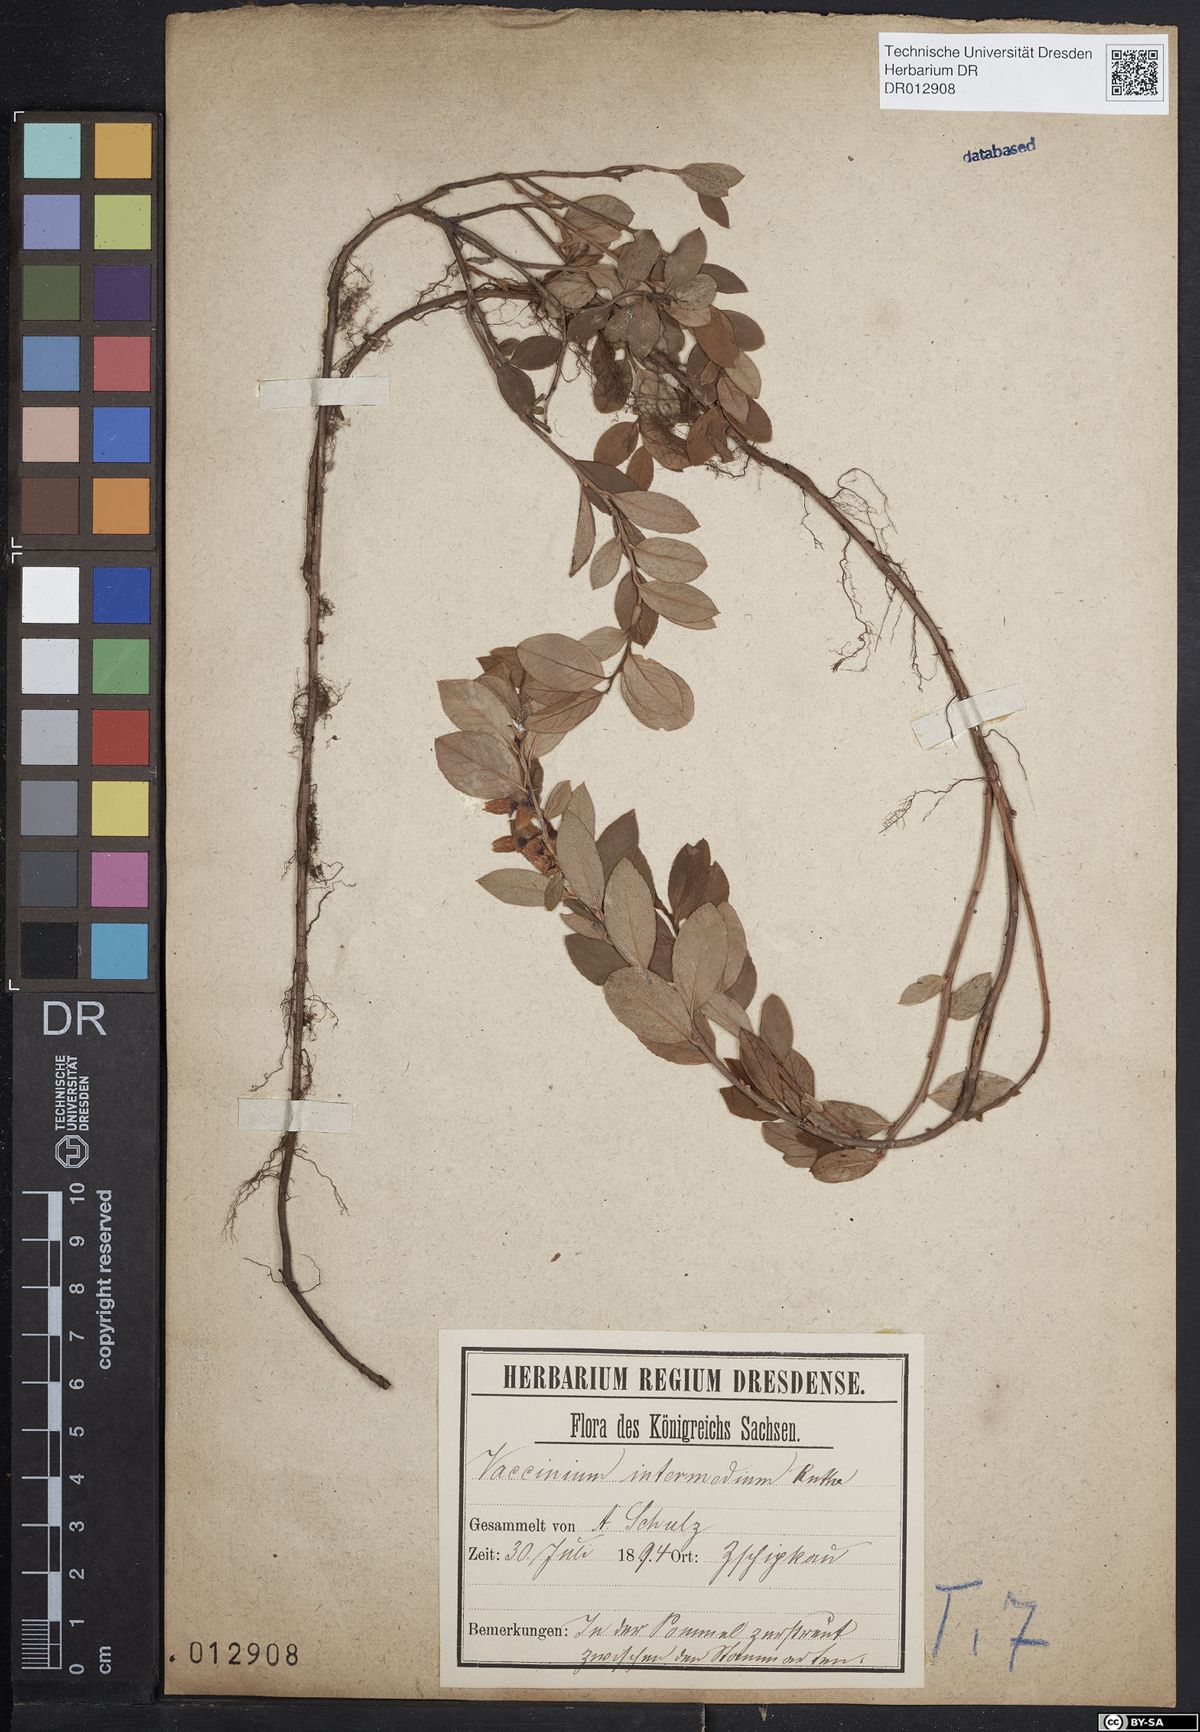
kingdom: Plantae
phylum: Tracheophyta
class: Magnoliopsida
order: Ericales
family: Ericaceae
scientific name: Ericaceae
